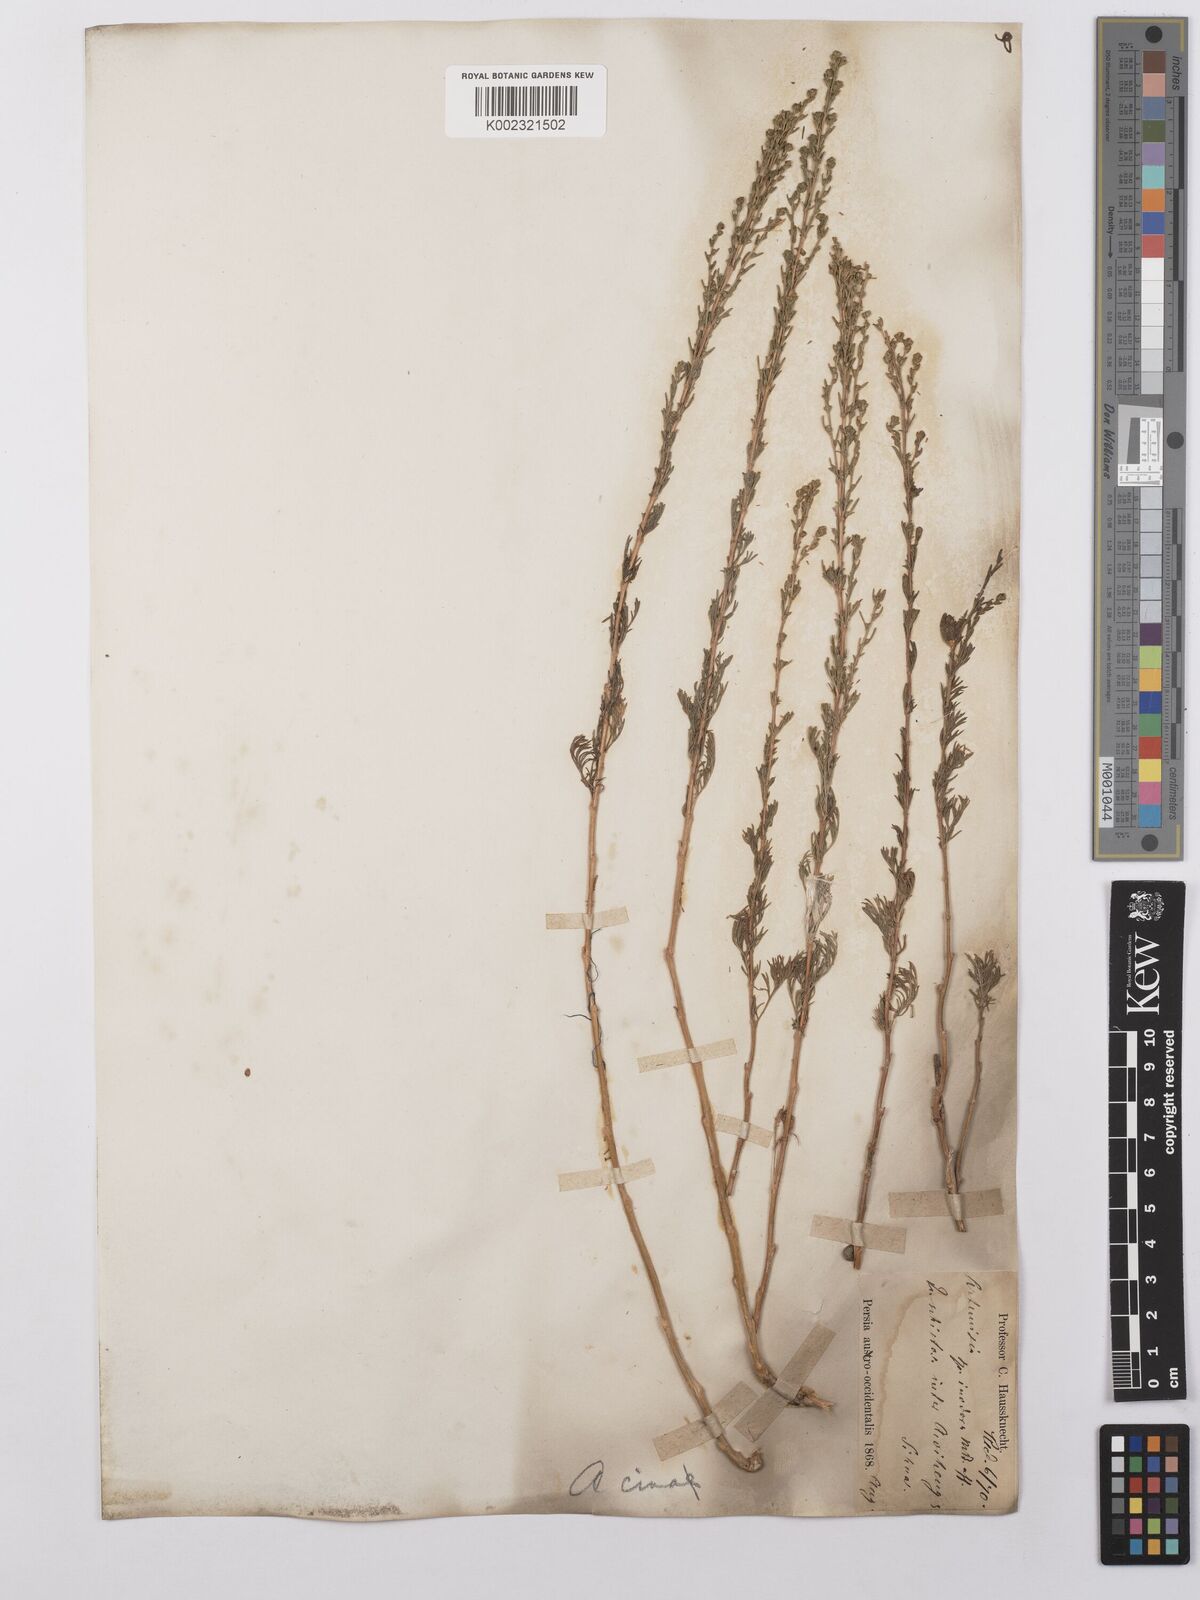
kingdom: Plantae
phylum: Tracheophyta
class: Magnoliopsida
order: Asterales
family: Asteraceae
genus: Artemisia
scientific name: Artemisia cina
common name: Levant wormseed
